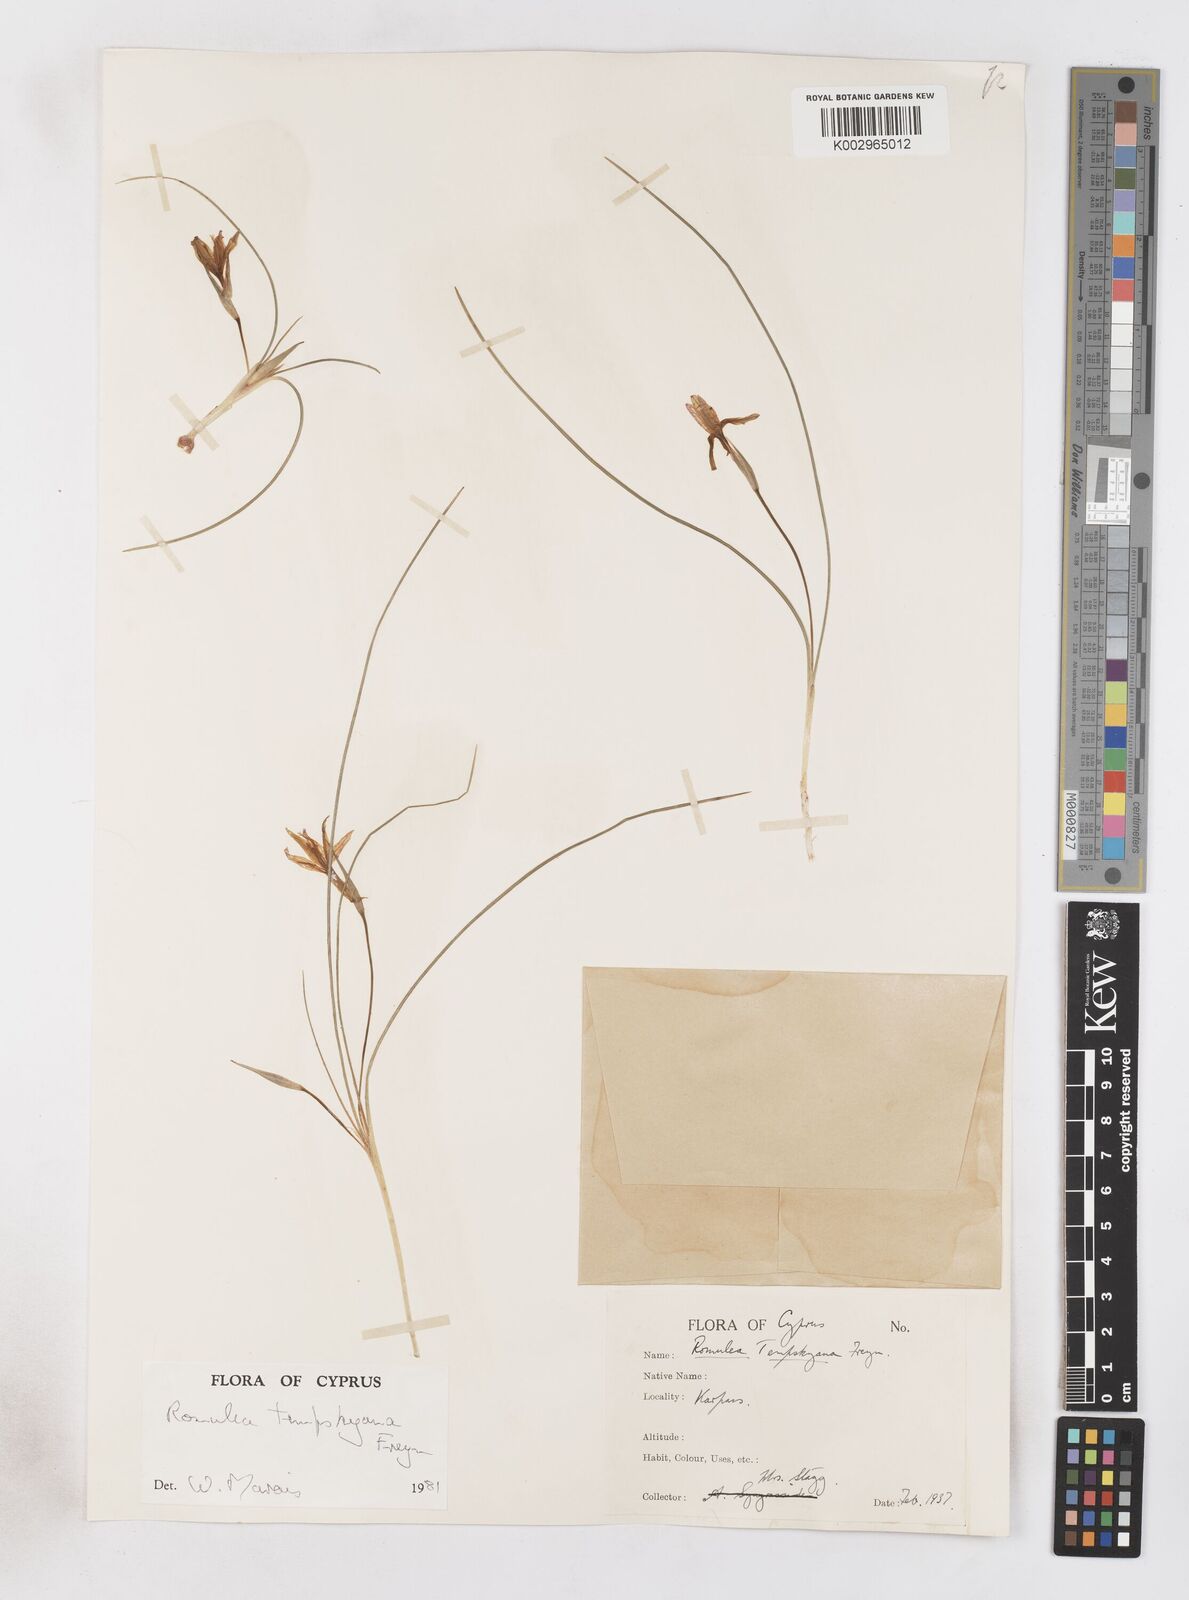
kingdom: Plantae
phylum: Tracheophyta
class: Liliopsida
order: Asparagales
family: Iridaceae
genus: Romulea
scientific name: Romulea tempskyana
